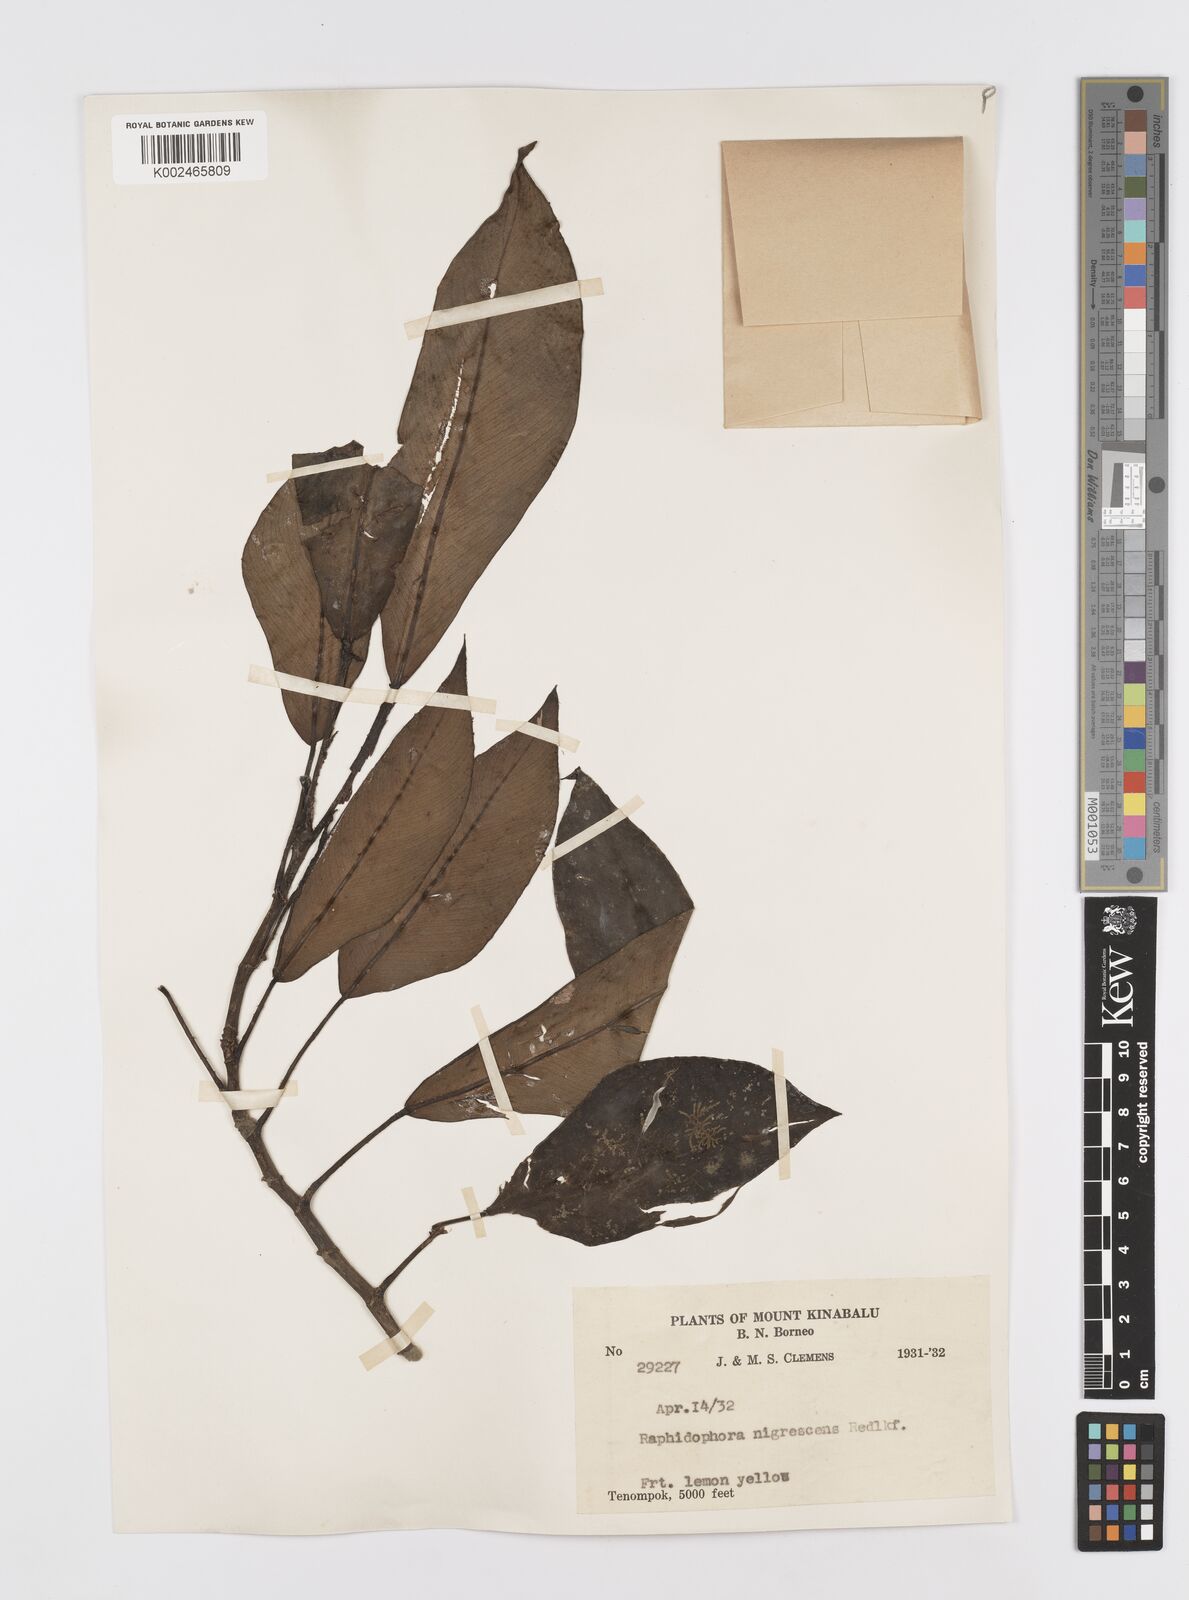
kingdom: Plantae
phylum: Tracheophyta
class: Liliopsida
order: Alismatales
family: Araceae
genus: Rhaphidophora
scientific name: Rhaphidophora sylvestris
